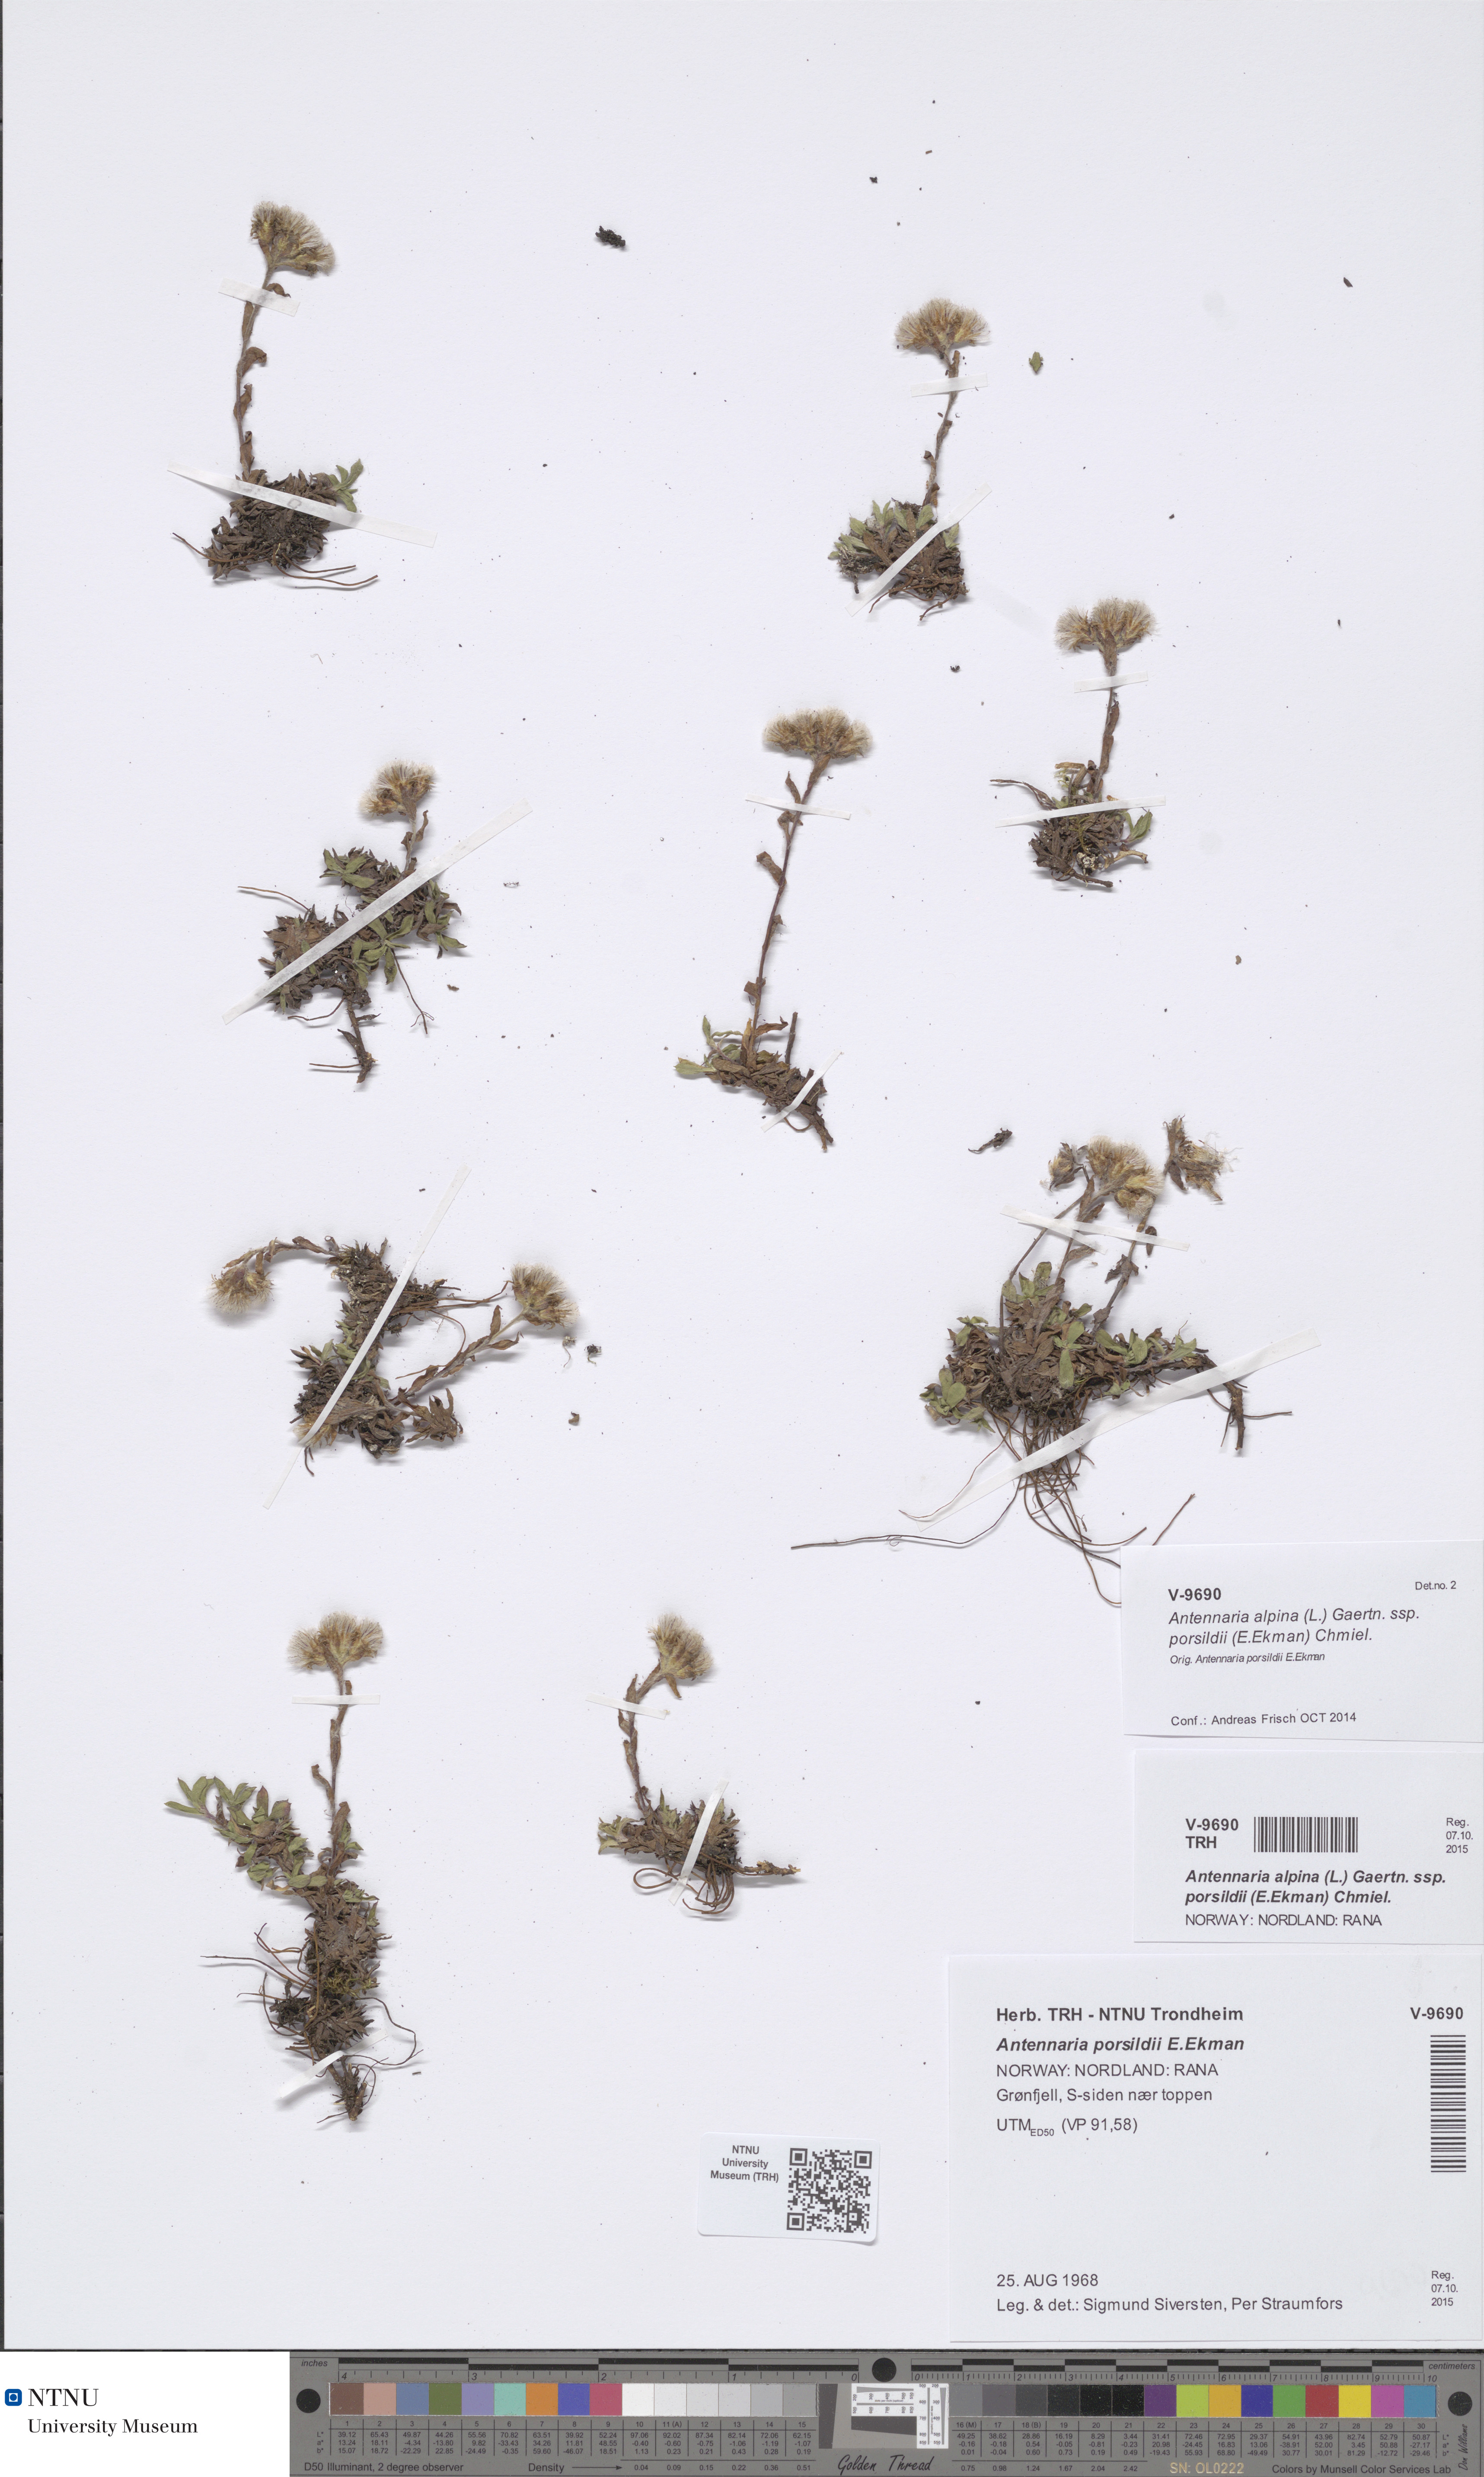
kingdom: Plantae
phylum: Tracheophyta
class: Magnoliopsida
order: Asterales
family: Asteraceae
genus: Antennaria
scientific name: Antennaria porsildii
